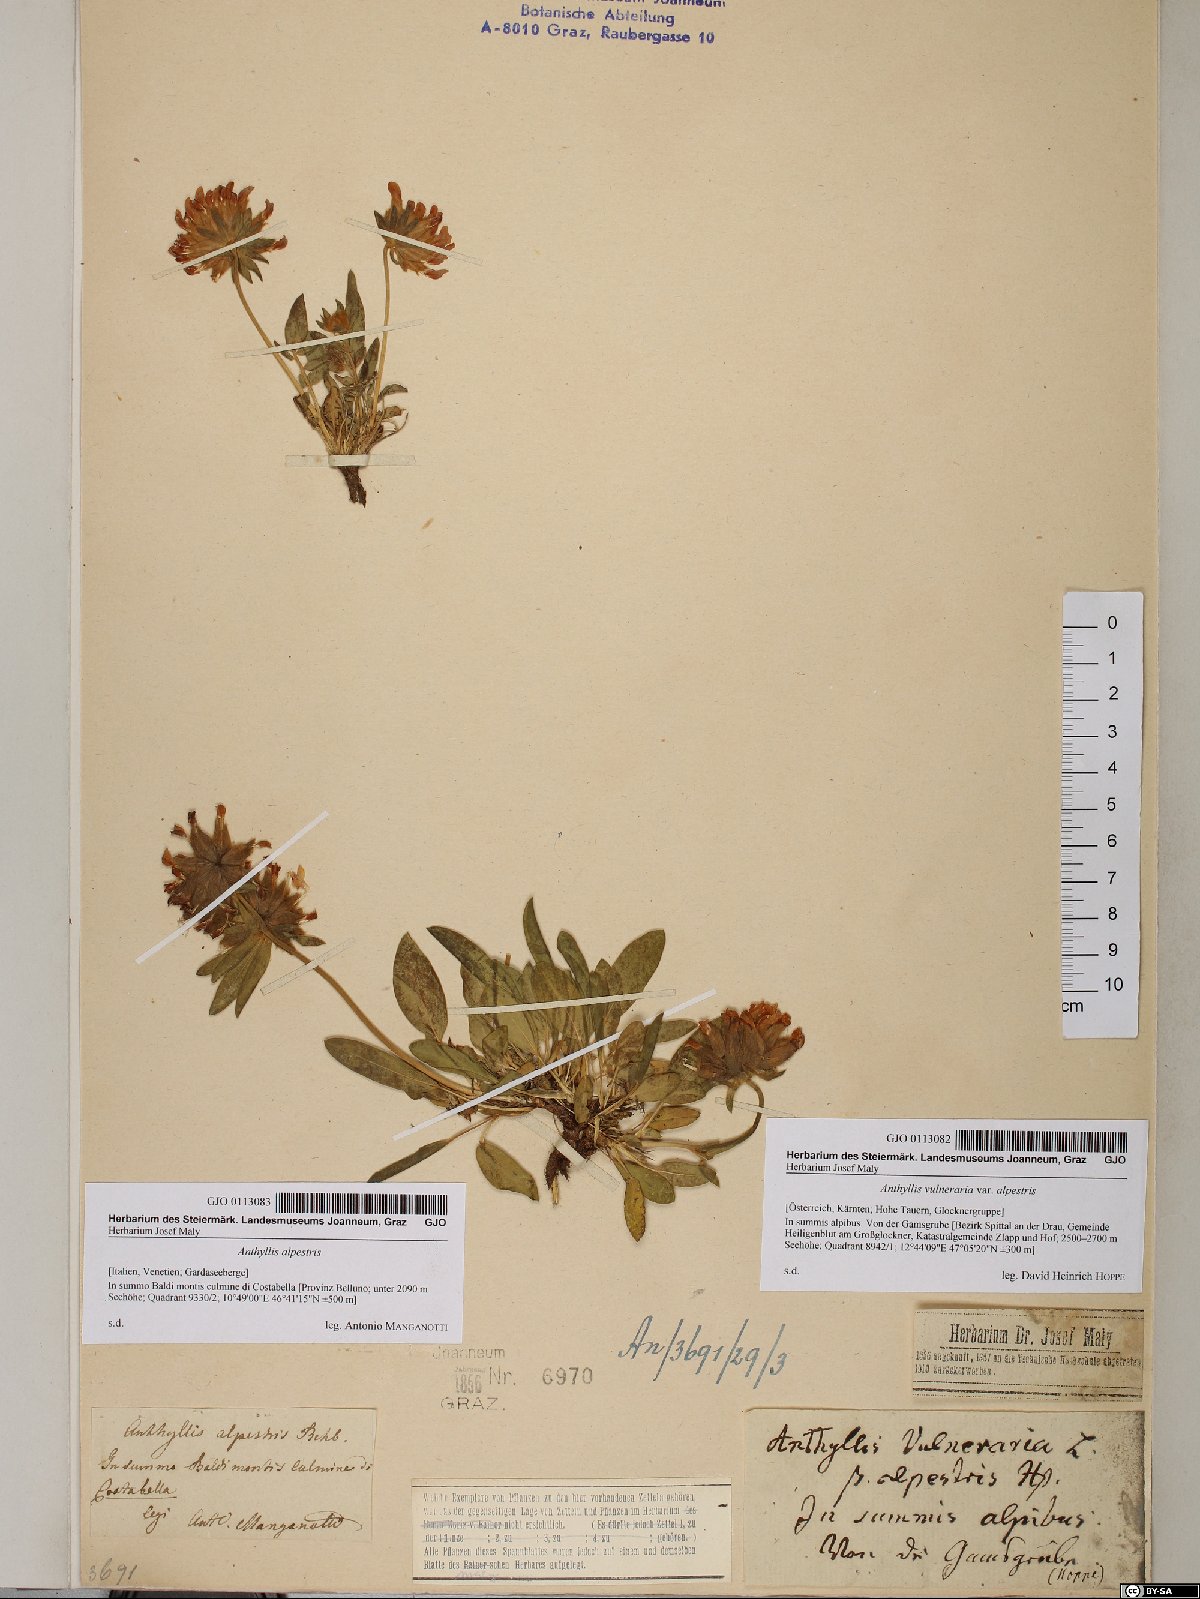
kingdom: Plantae
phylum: Tracheophyta
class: Magnoliopsida
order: Fabales
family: Fabaceae
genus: Anthyllis
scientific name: Anthyllis vulneraria
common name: Kidney vetch
